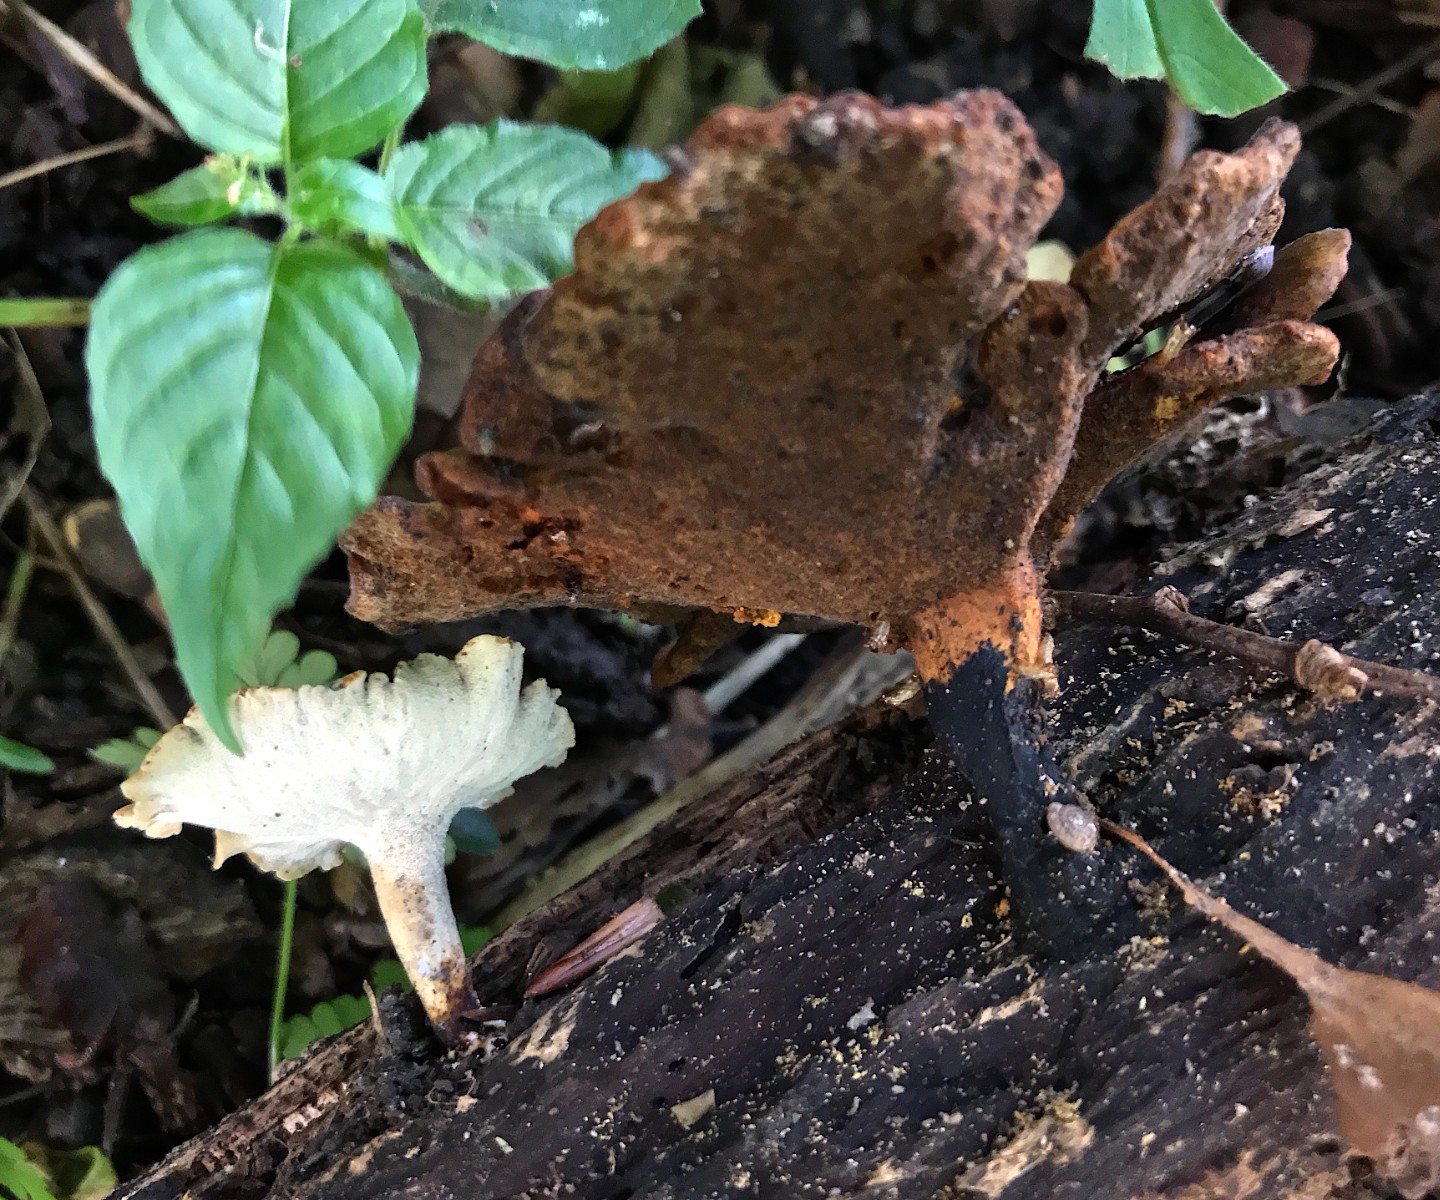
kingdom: Fungi
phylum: Basidiomycota
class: Agaricomycetes
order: Polyporales
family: Polyporaceae
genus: Cerioporus
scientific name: Cerioporus varius
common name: foranderlig stilkporesvamp
